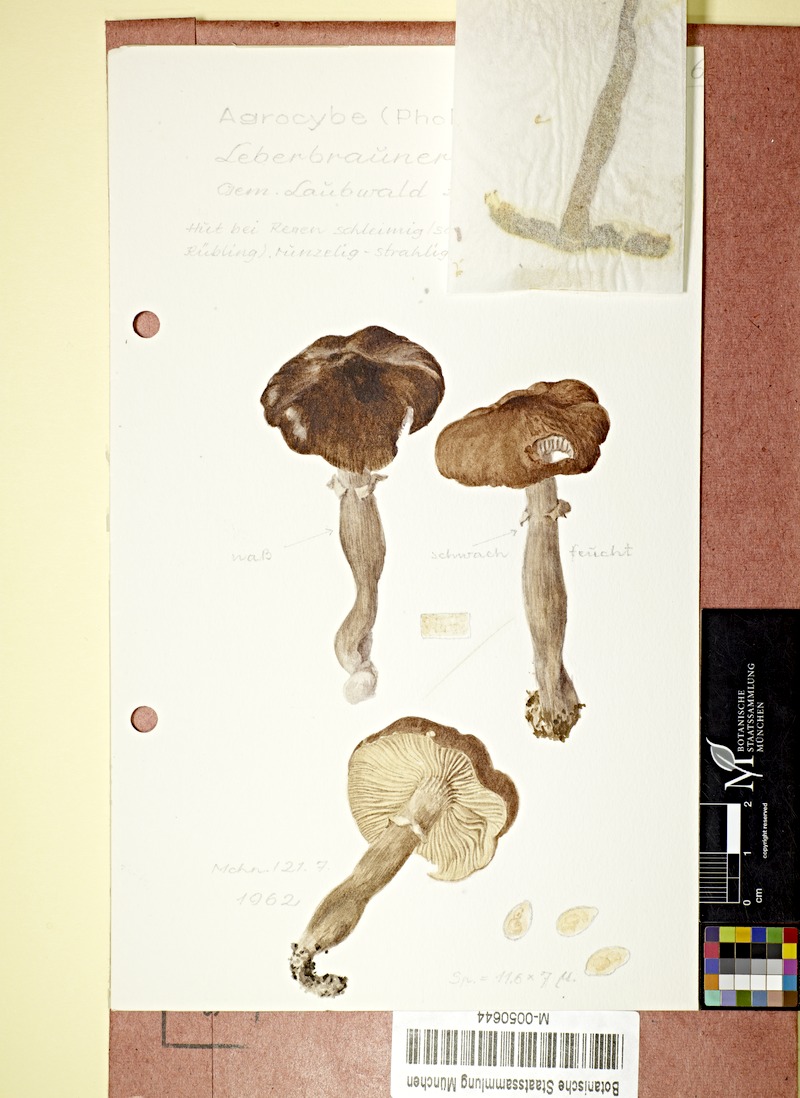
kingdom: Fungi
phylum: Basidiomycota
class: Agaricomycetes
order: Agaricales
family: Tubariaceae
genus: Cyclocybe
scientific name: Cyclocybe erebia
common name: Dark fieldcap
